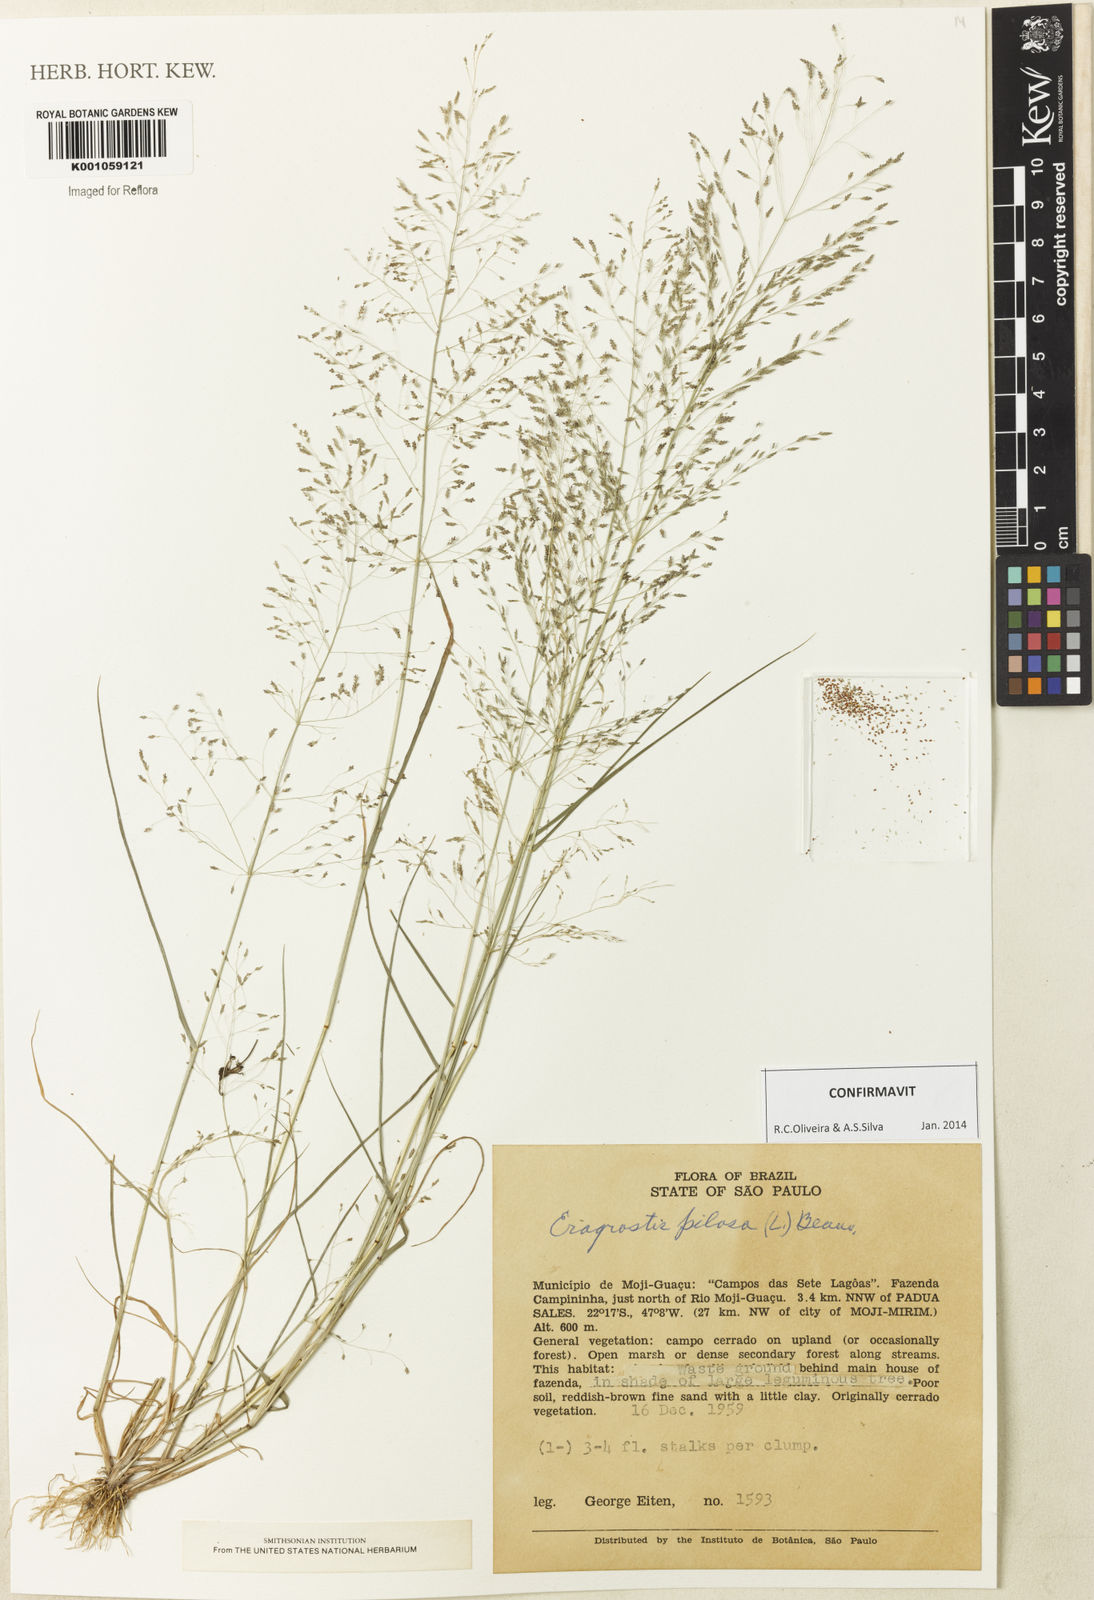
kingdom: Plantae
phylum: Tracheophyta
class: Liliopsida
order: Poales
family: Poaceae
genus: Eragrostis
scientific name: Eragrostis pilosa
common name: Indian lovegrass
